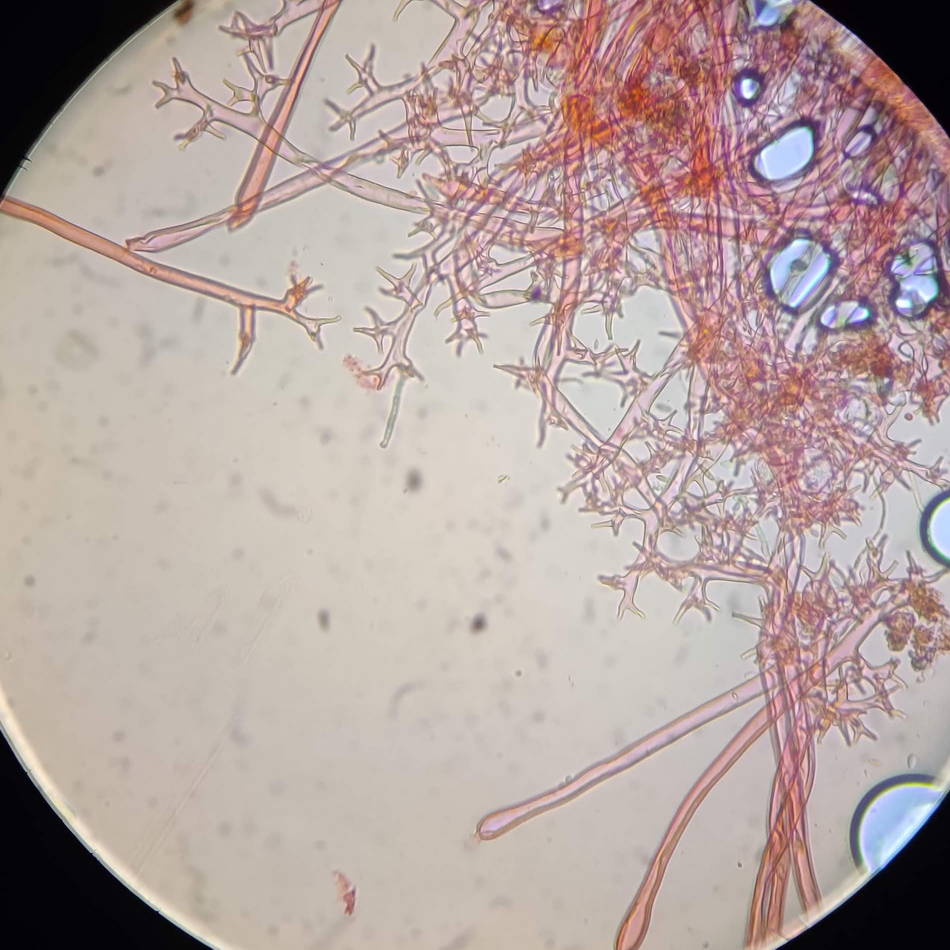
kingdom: Chromista
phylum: Oomycota
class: Peronosporea
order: Peronosporales
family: Peronosporaceae
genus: Peronospora
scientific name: Peronospora crustosa
